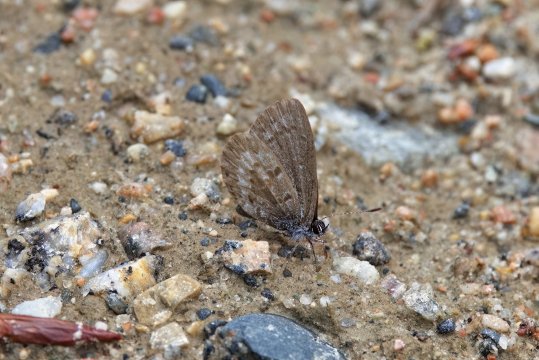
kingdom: Animalia
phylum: Arthropoda
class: Insecta
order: Lepidoptera
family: Lycaenidae
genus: Celastrina
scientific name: Celastrina lucia
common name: Northern Spring Azure
